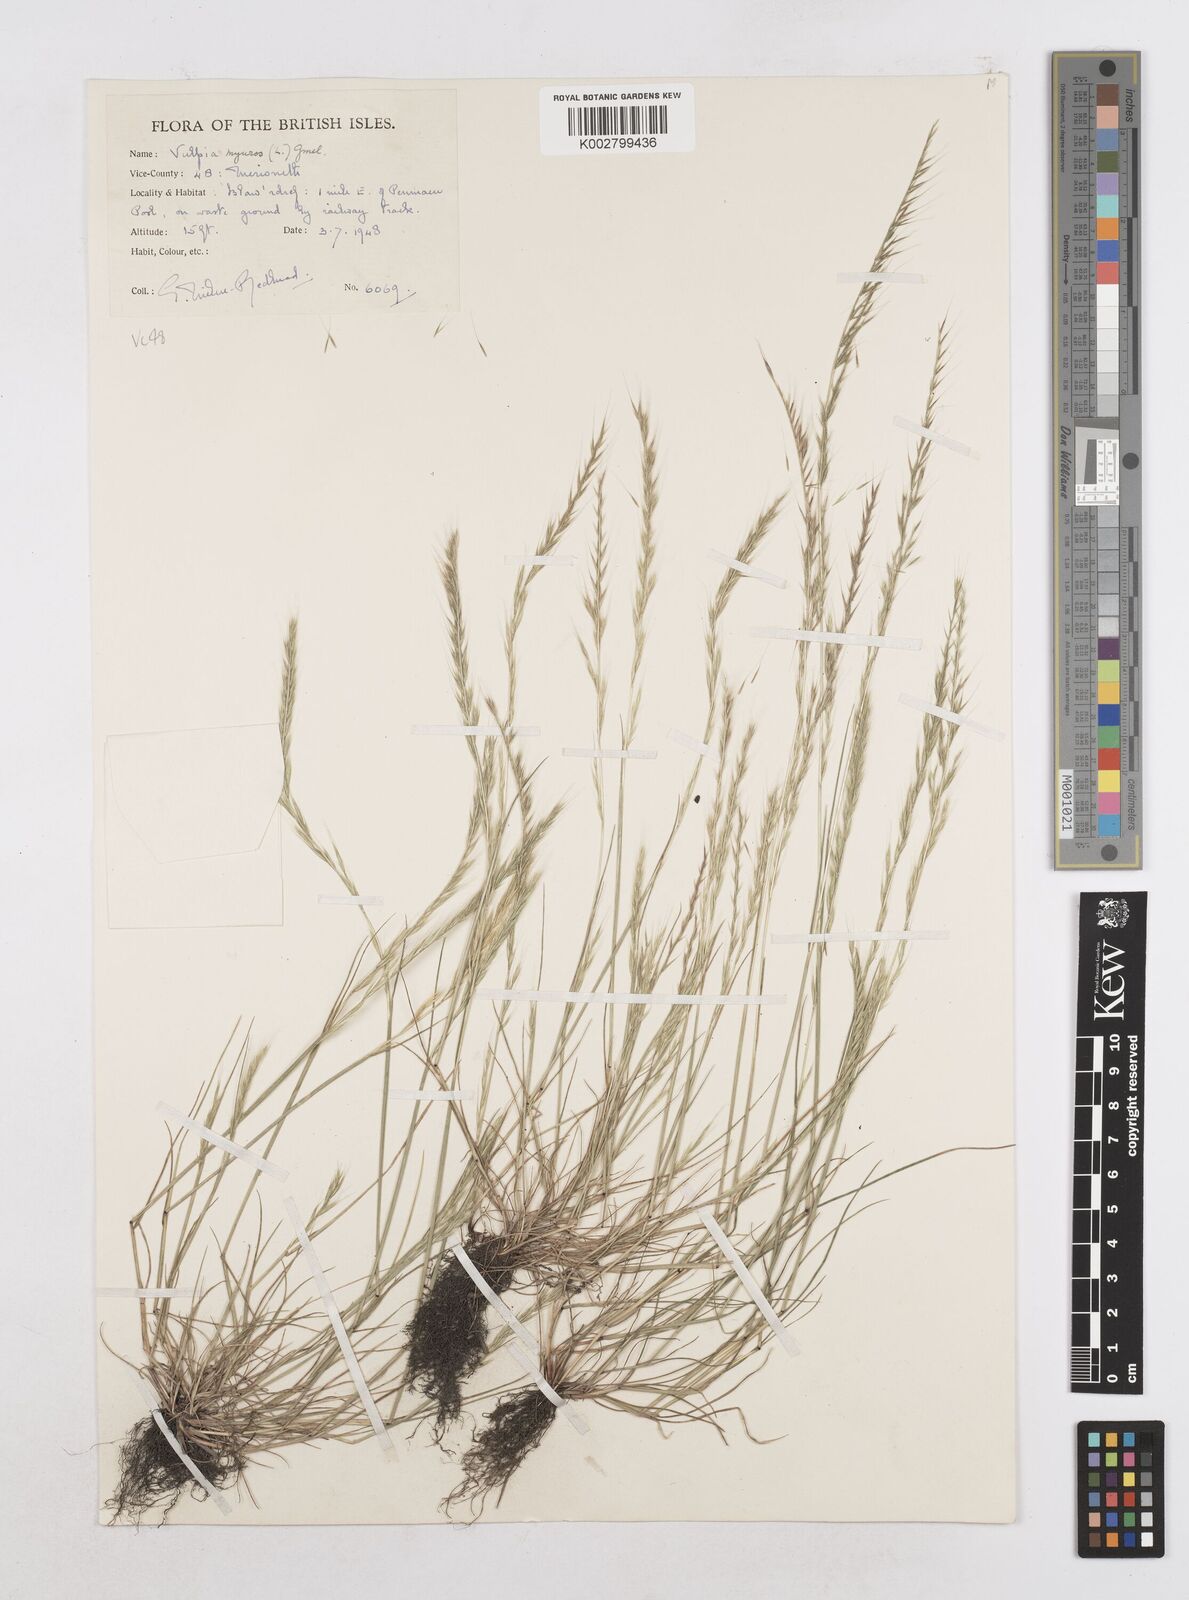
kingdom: Plantae
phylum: Tracheophyta
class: Liliopsida
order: Poales
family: Poaceae
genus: Festuca
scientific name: Festuca myuros
